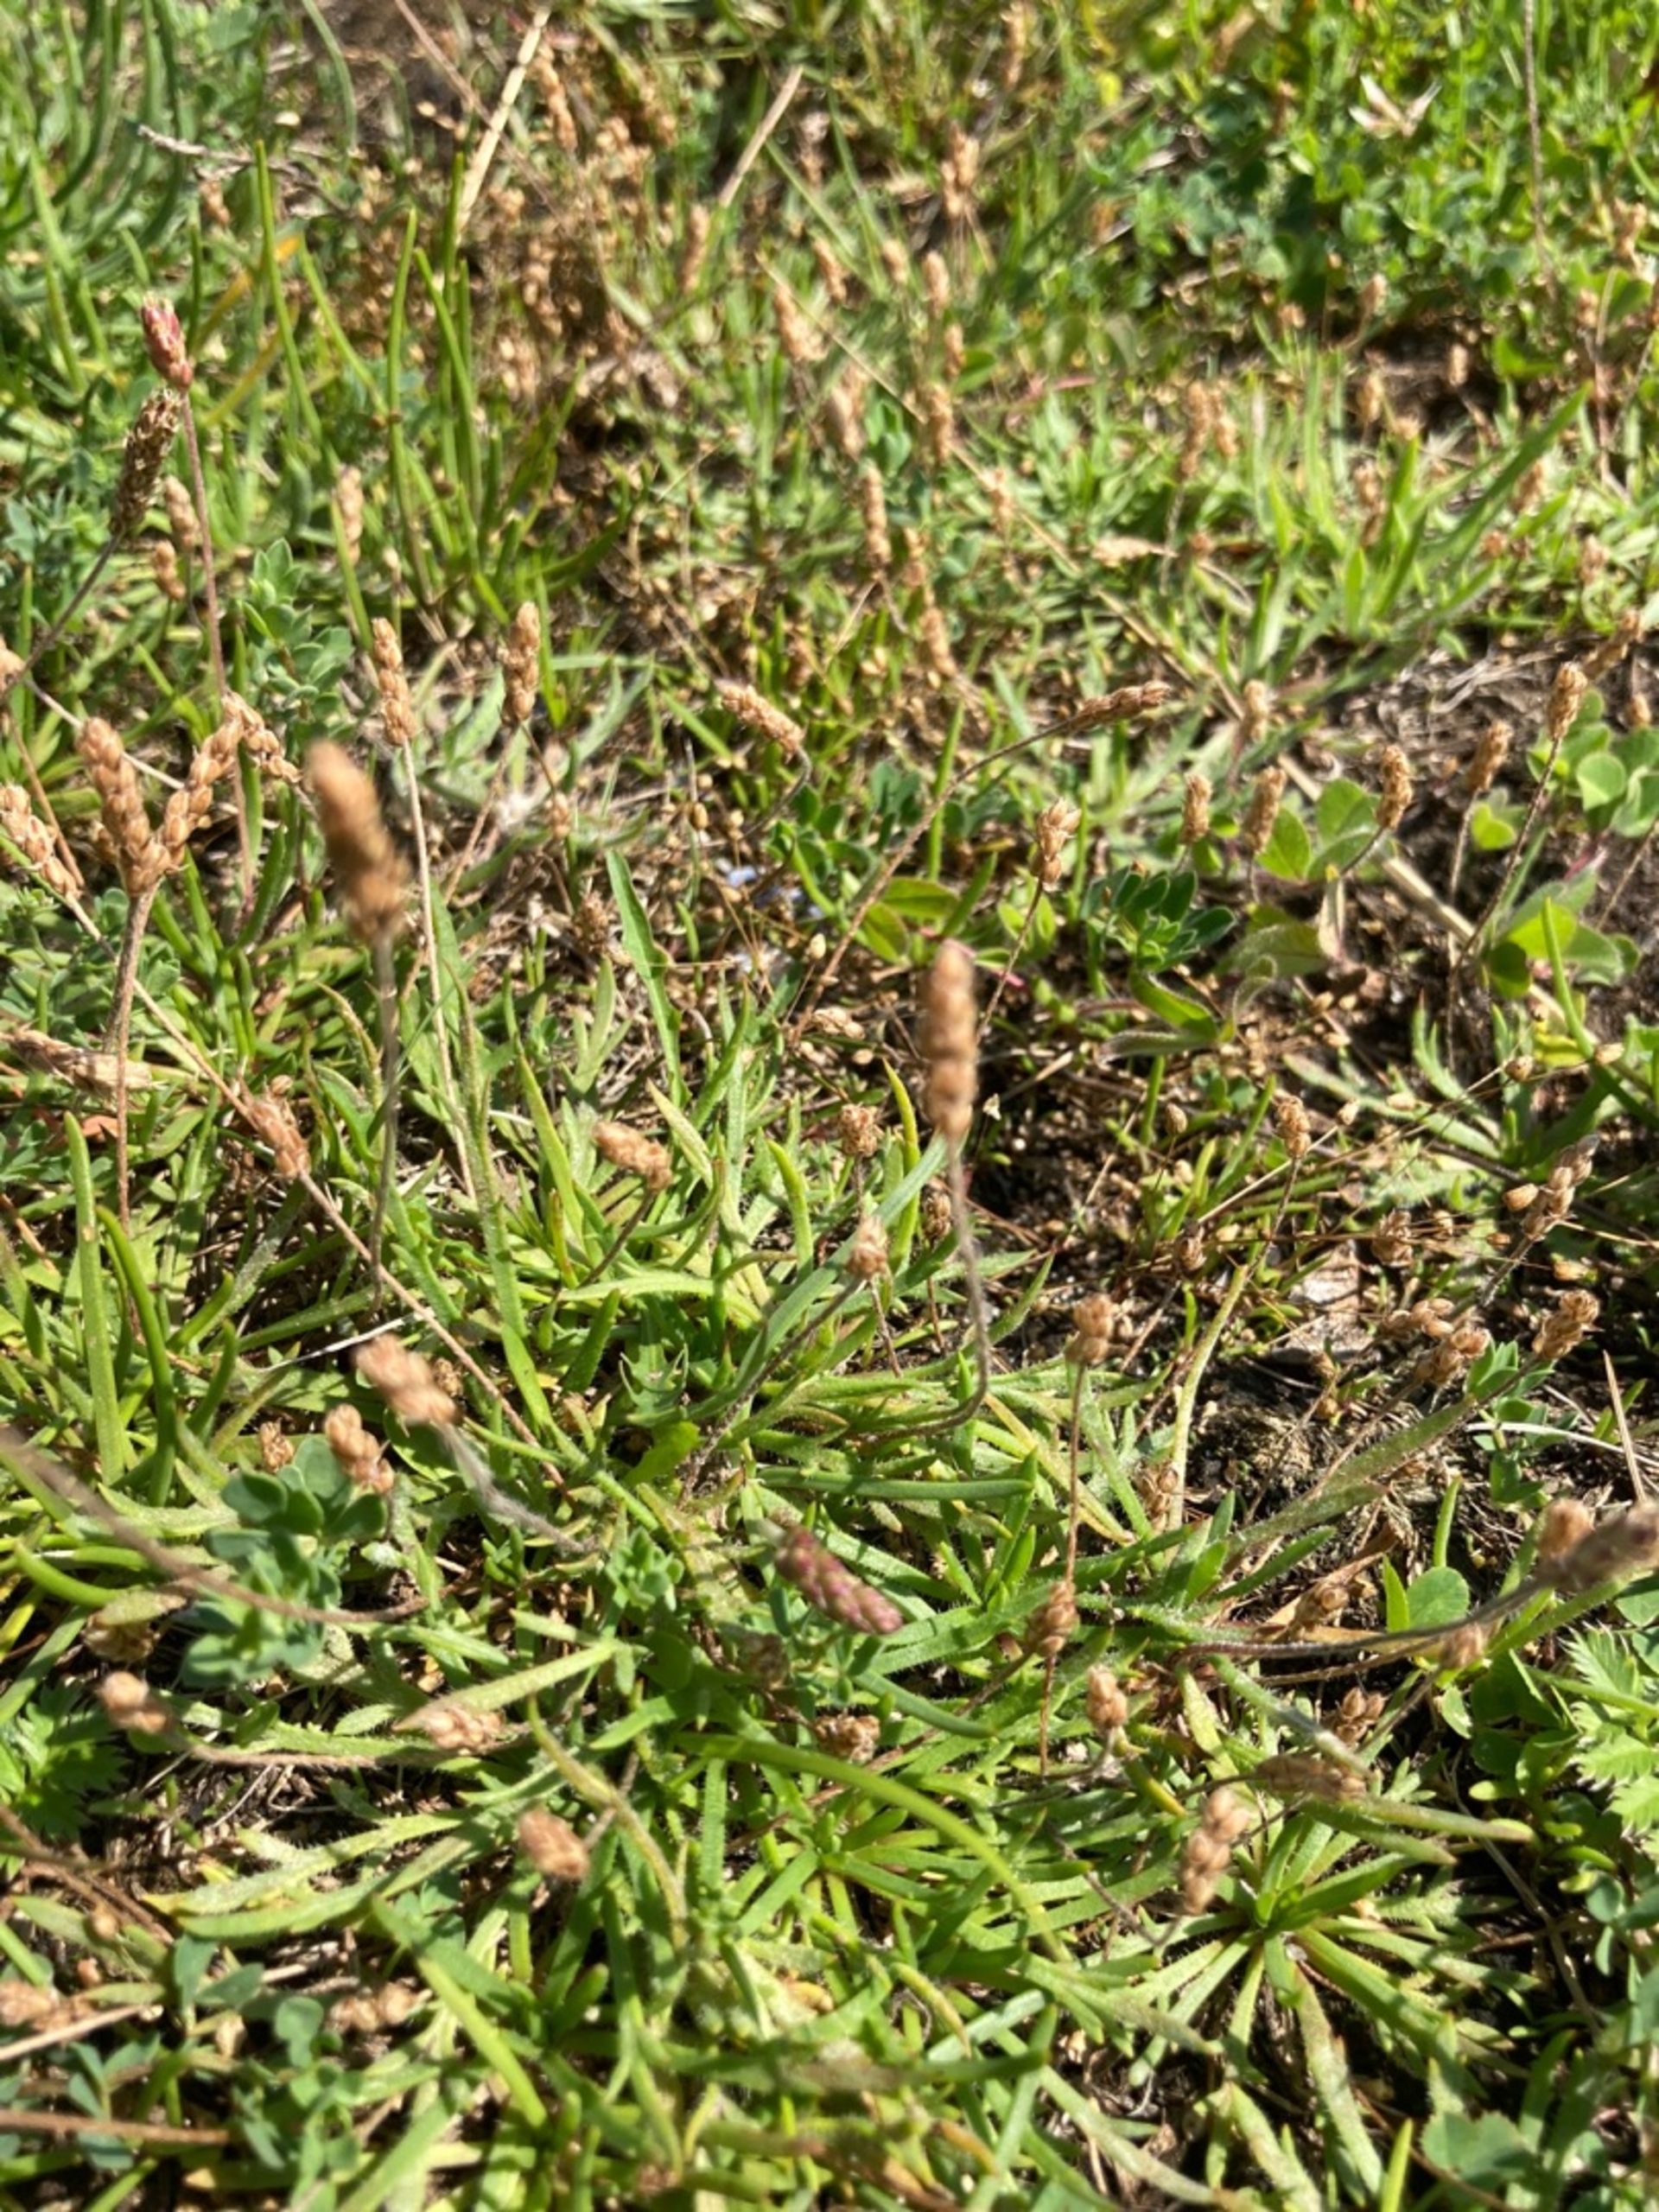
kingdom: Plantae
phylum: Tracheophyta
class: Magnoliopsida
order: Lamiales
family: Plantaginaceae
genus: Plantago
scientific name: Plantago coronopus
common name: Fliget vejbred
